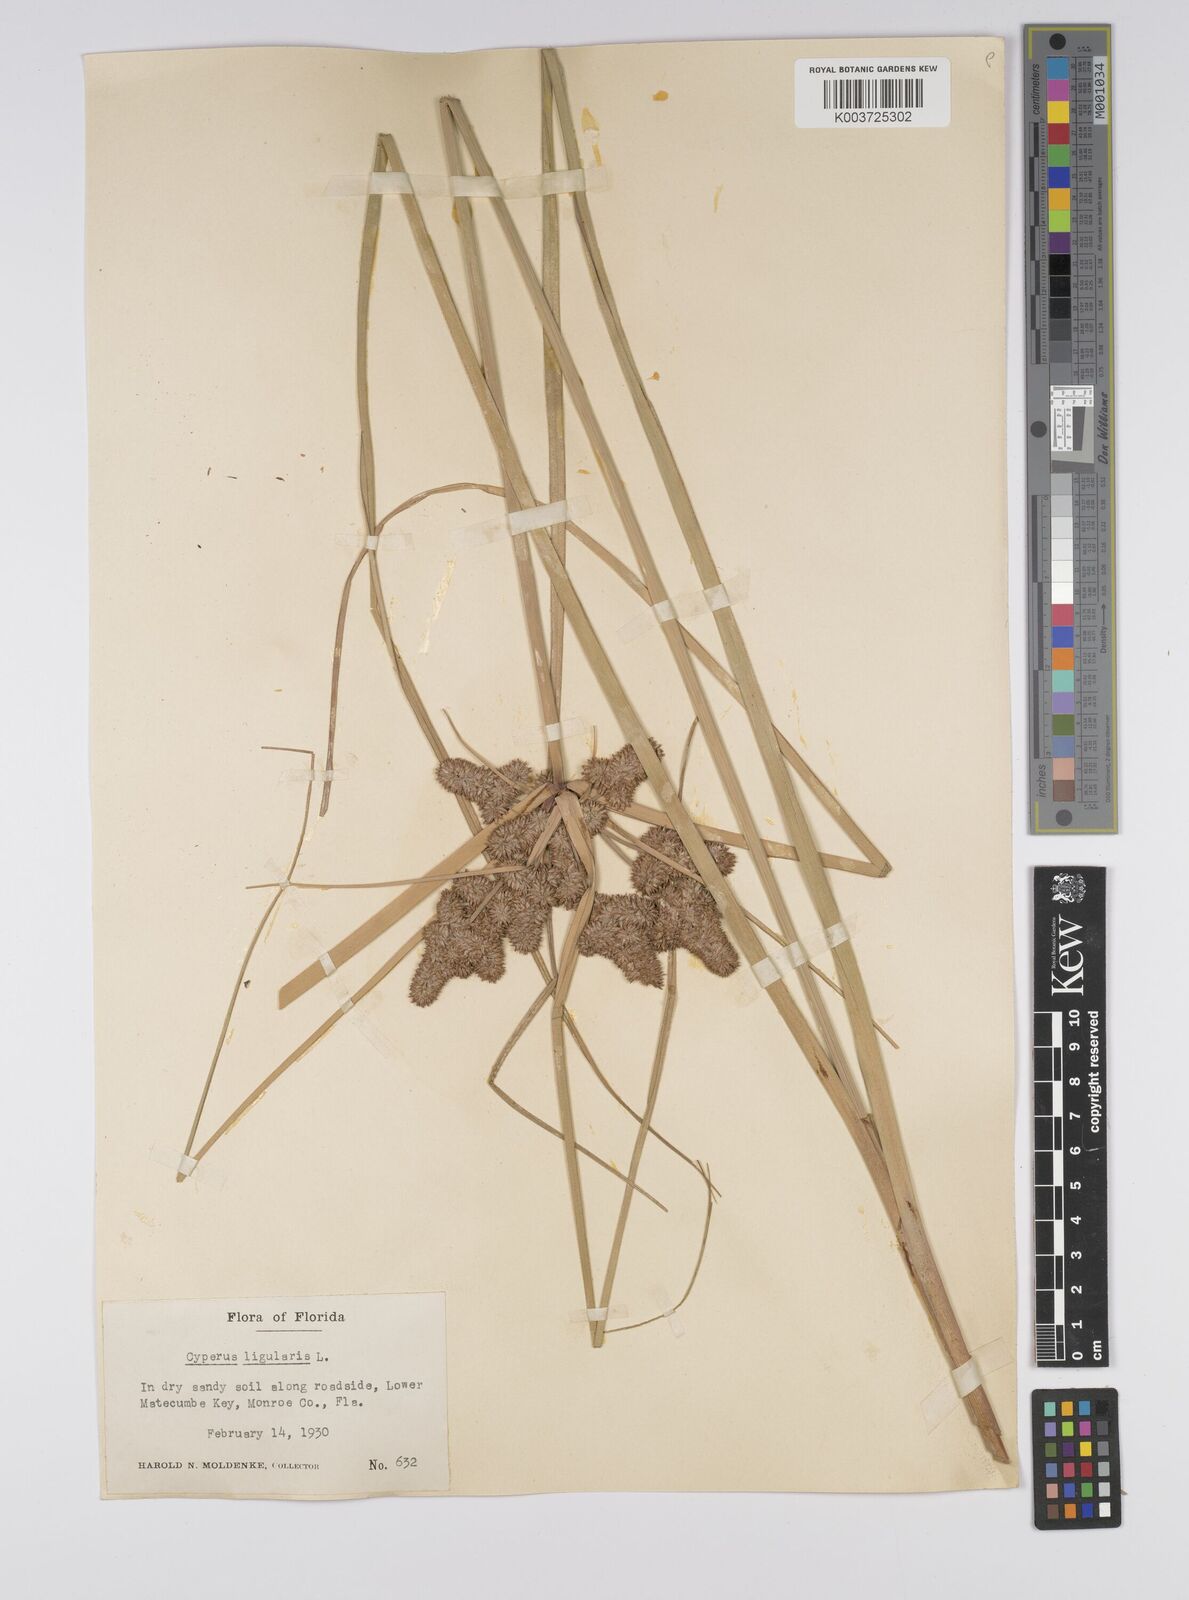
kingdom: Plantae
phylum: Tracheophyta
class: Liliopsida
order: Poales
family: Cyperaceae
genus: Cyperus
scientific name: Cyperus ligularis
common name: Swamp flat sedge
